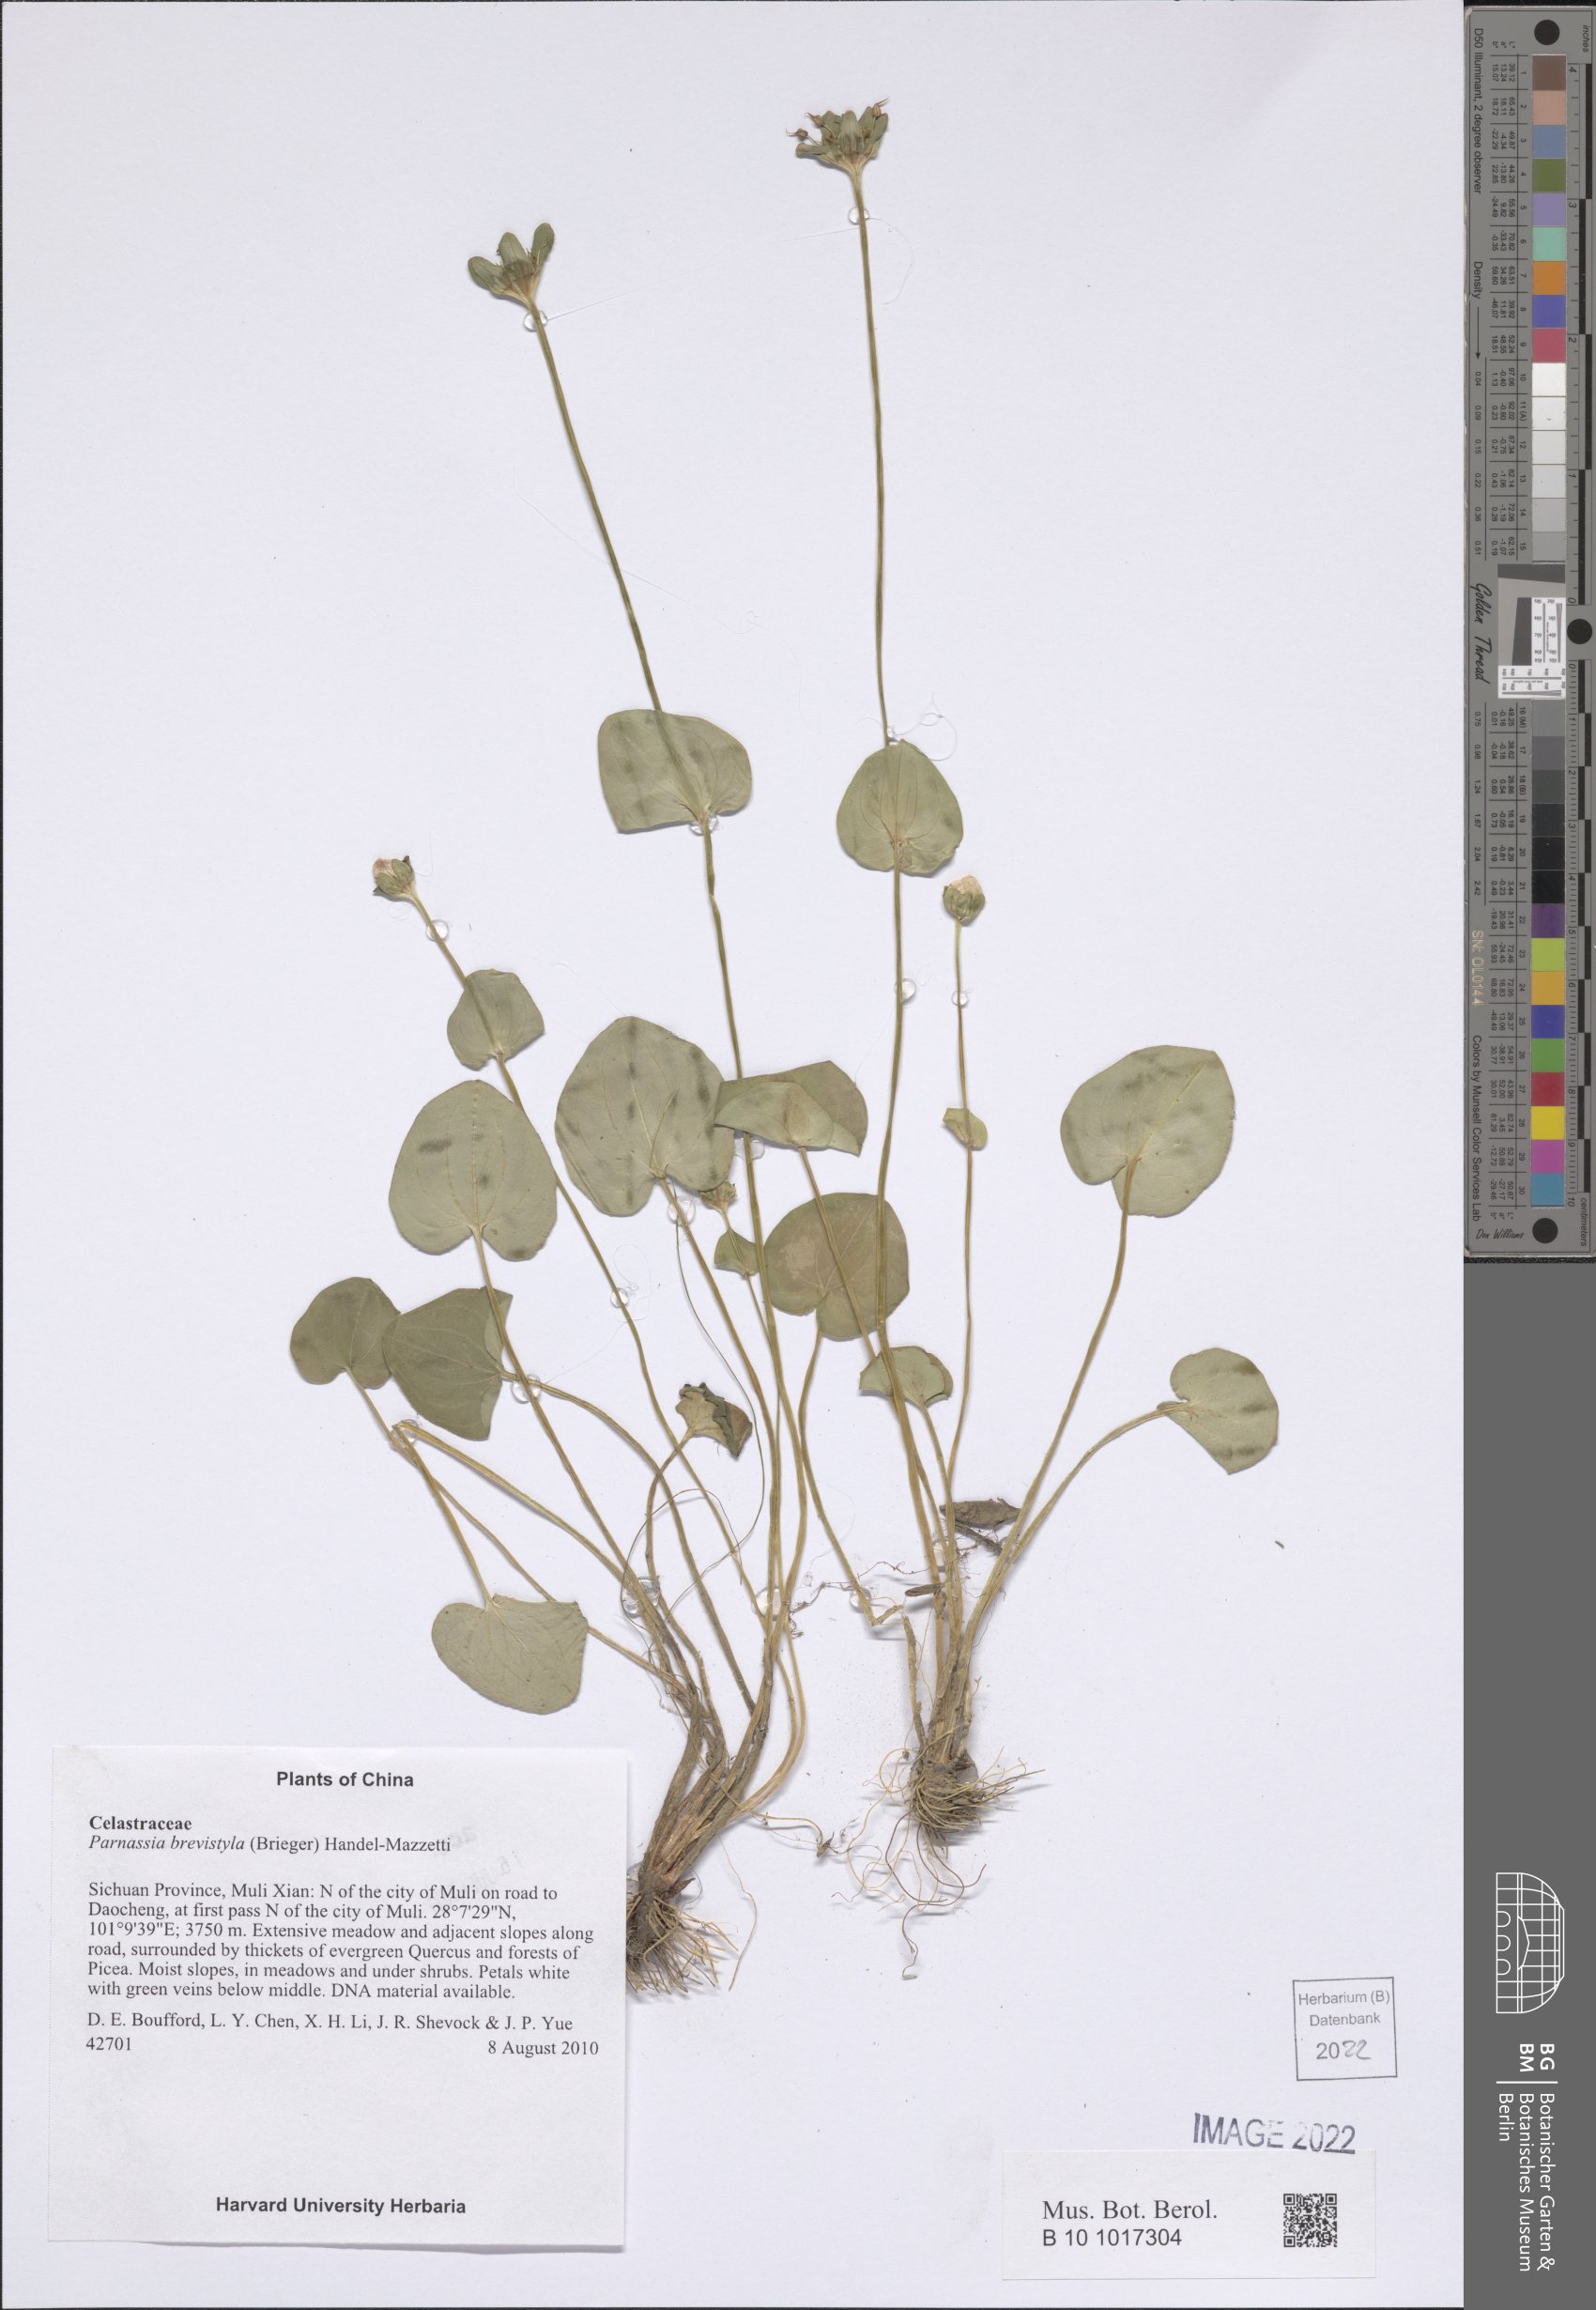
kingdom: Plantae
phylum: Tracheophyta
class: Magnoliopsida
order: Celastrales
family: Parnassiaceae
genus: Parnassia
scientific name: Parnassia delavayi
